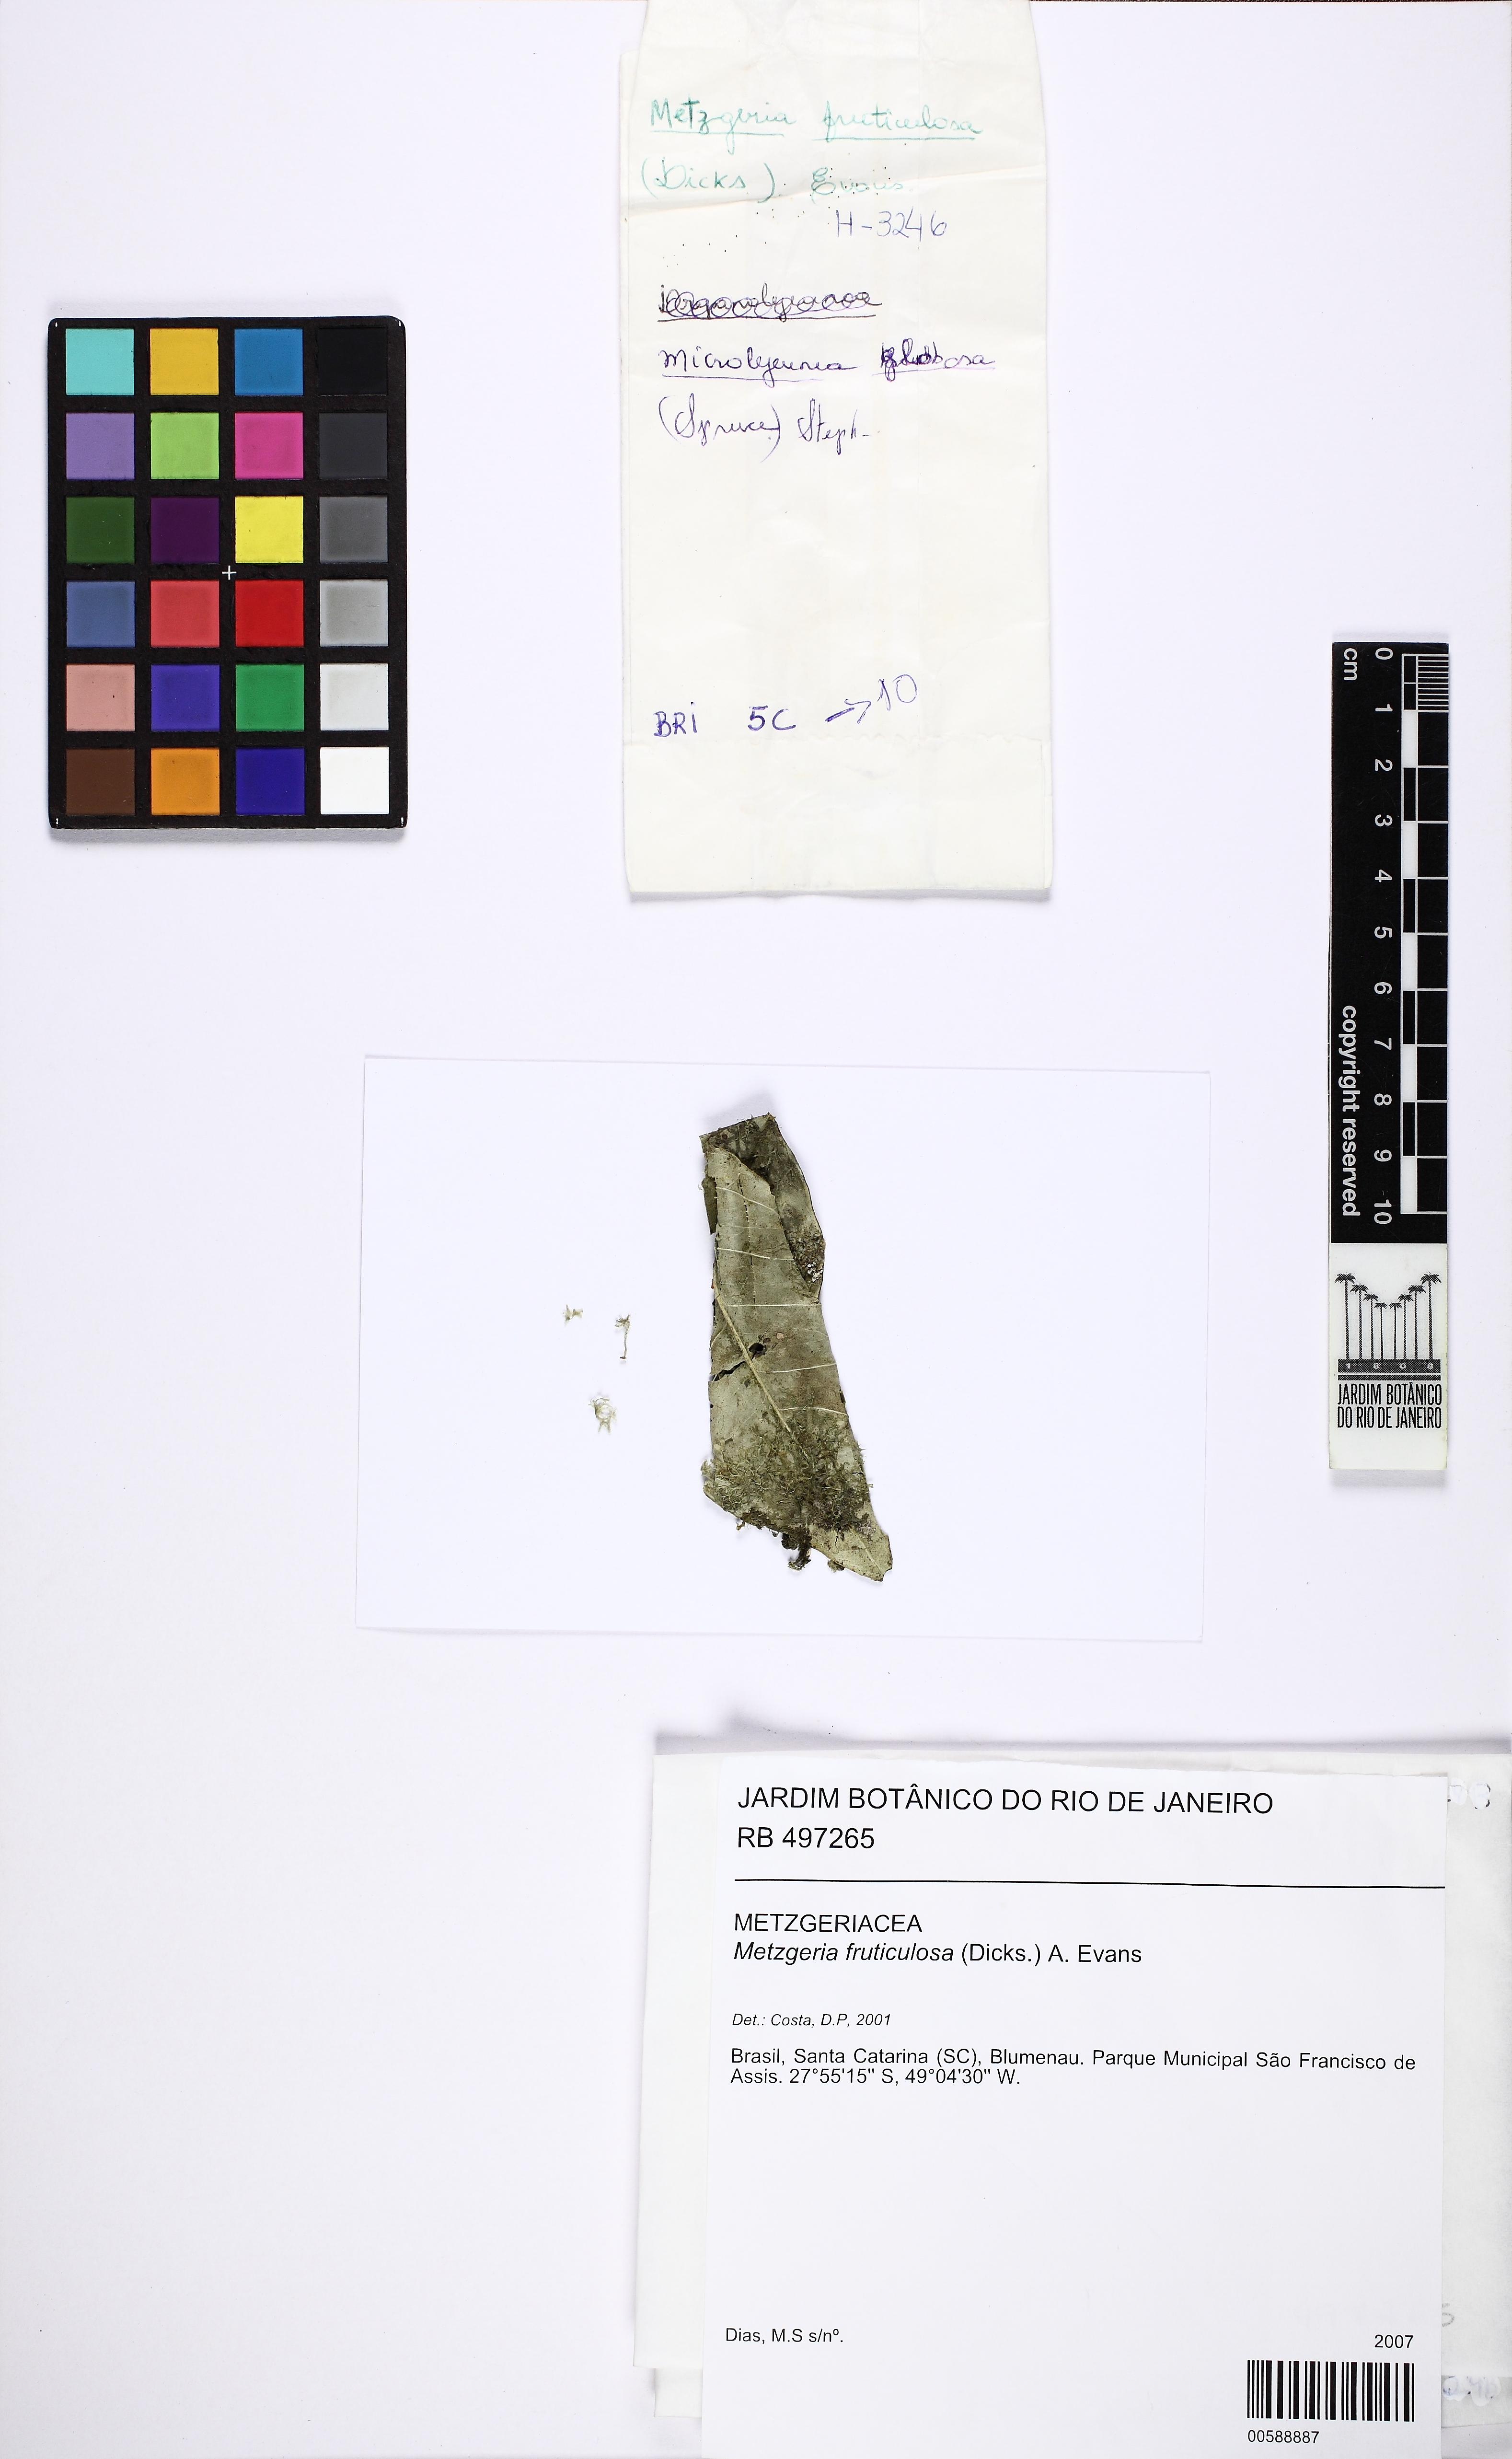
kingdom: Plantae
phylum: Marchantiophyta
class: Jungermanniopsida
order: Metzgeriales
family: Aneuraceae
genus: Riccardia
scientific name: Riccardia palmata
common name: Palmate germanderwort
